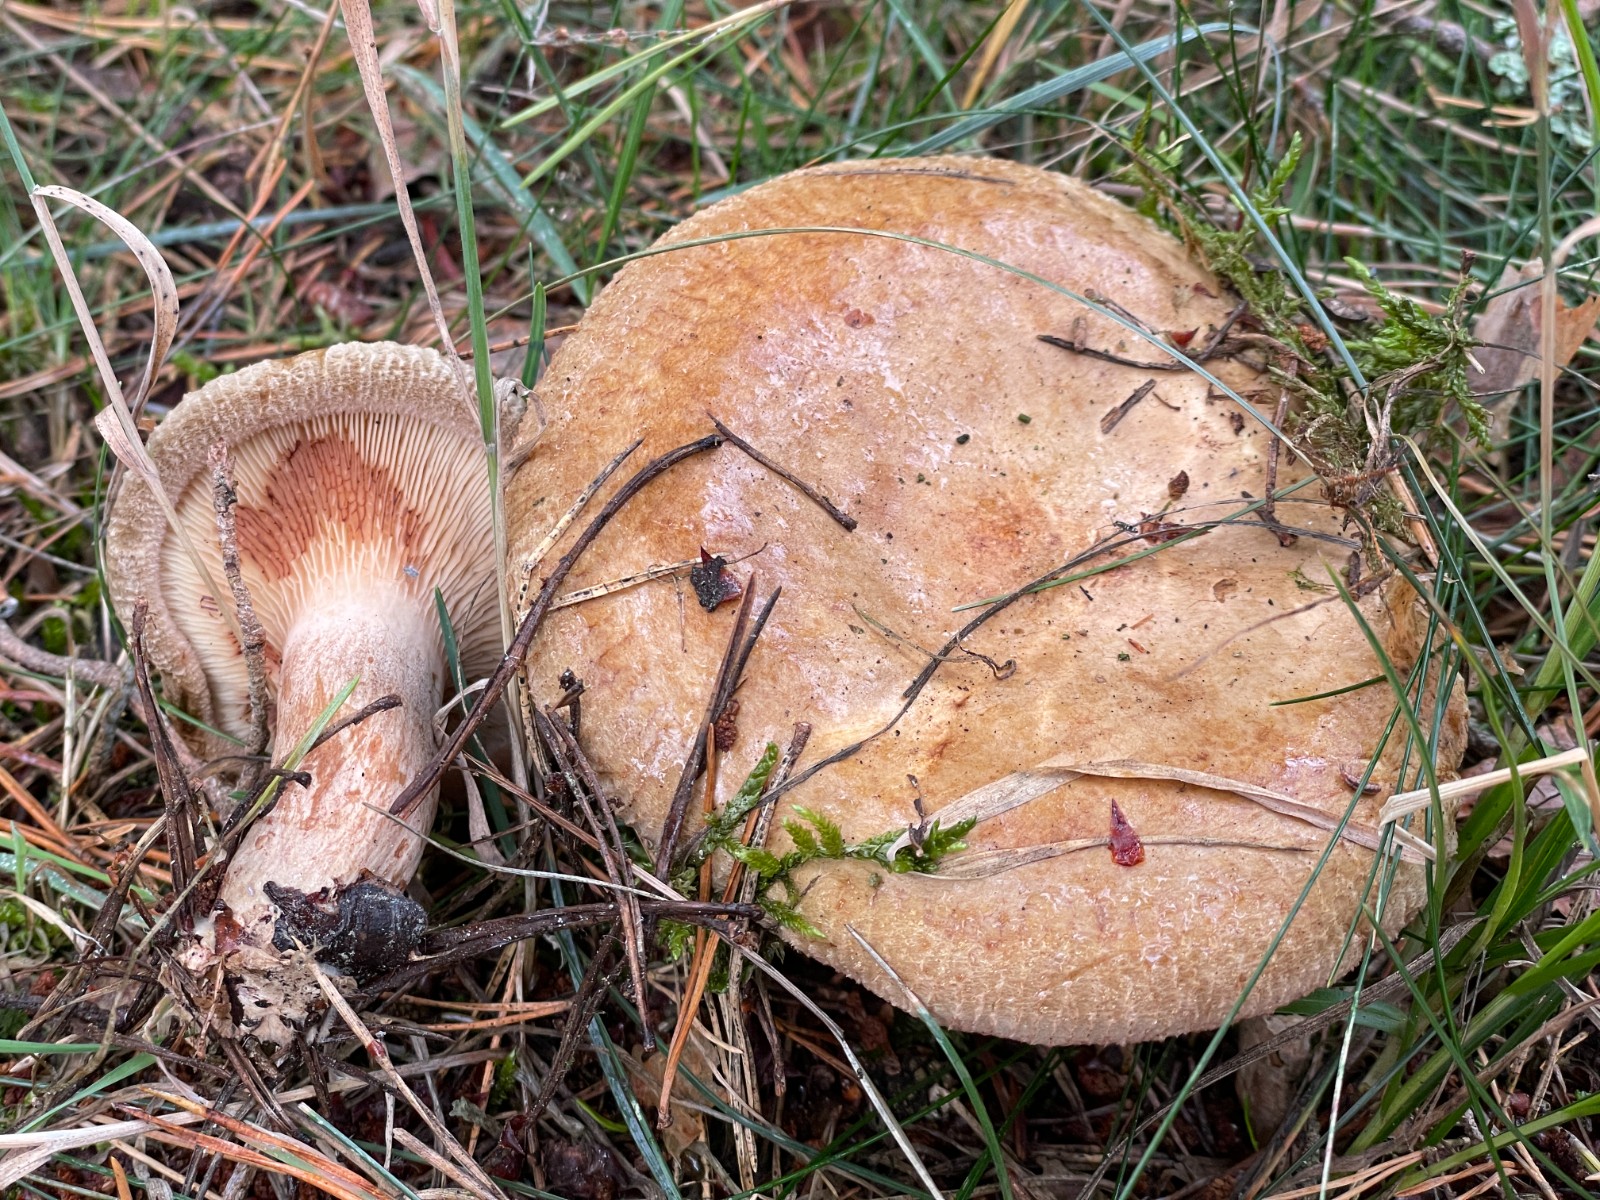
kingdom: Fungi
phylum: Basidiomycota
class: Agaricomycetes
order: Boletales
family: Paxillaceae
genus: Paxillus
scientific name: Paxillus involutus
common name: almindelig netbladhat
